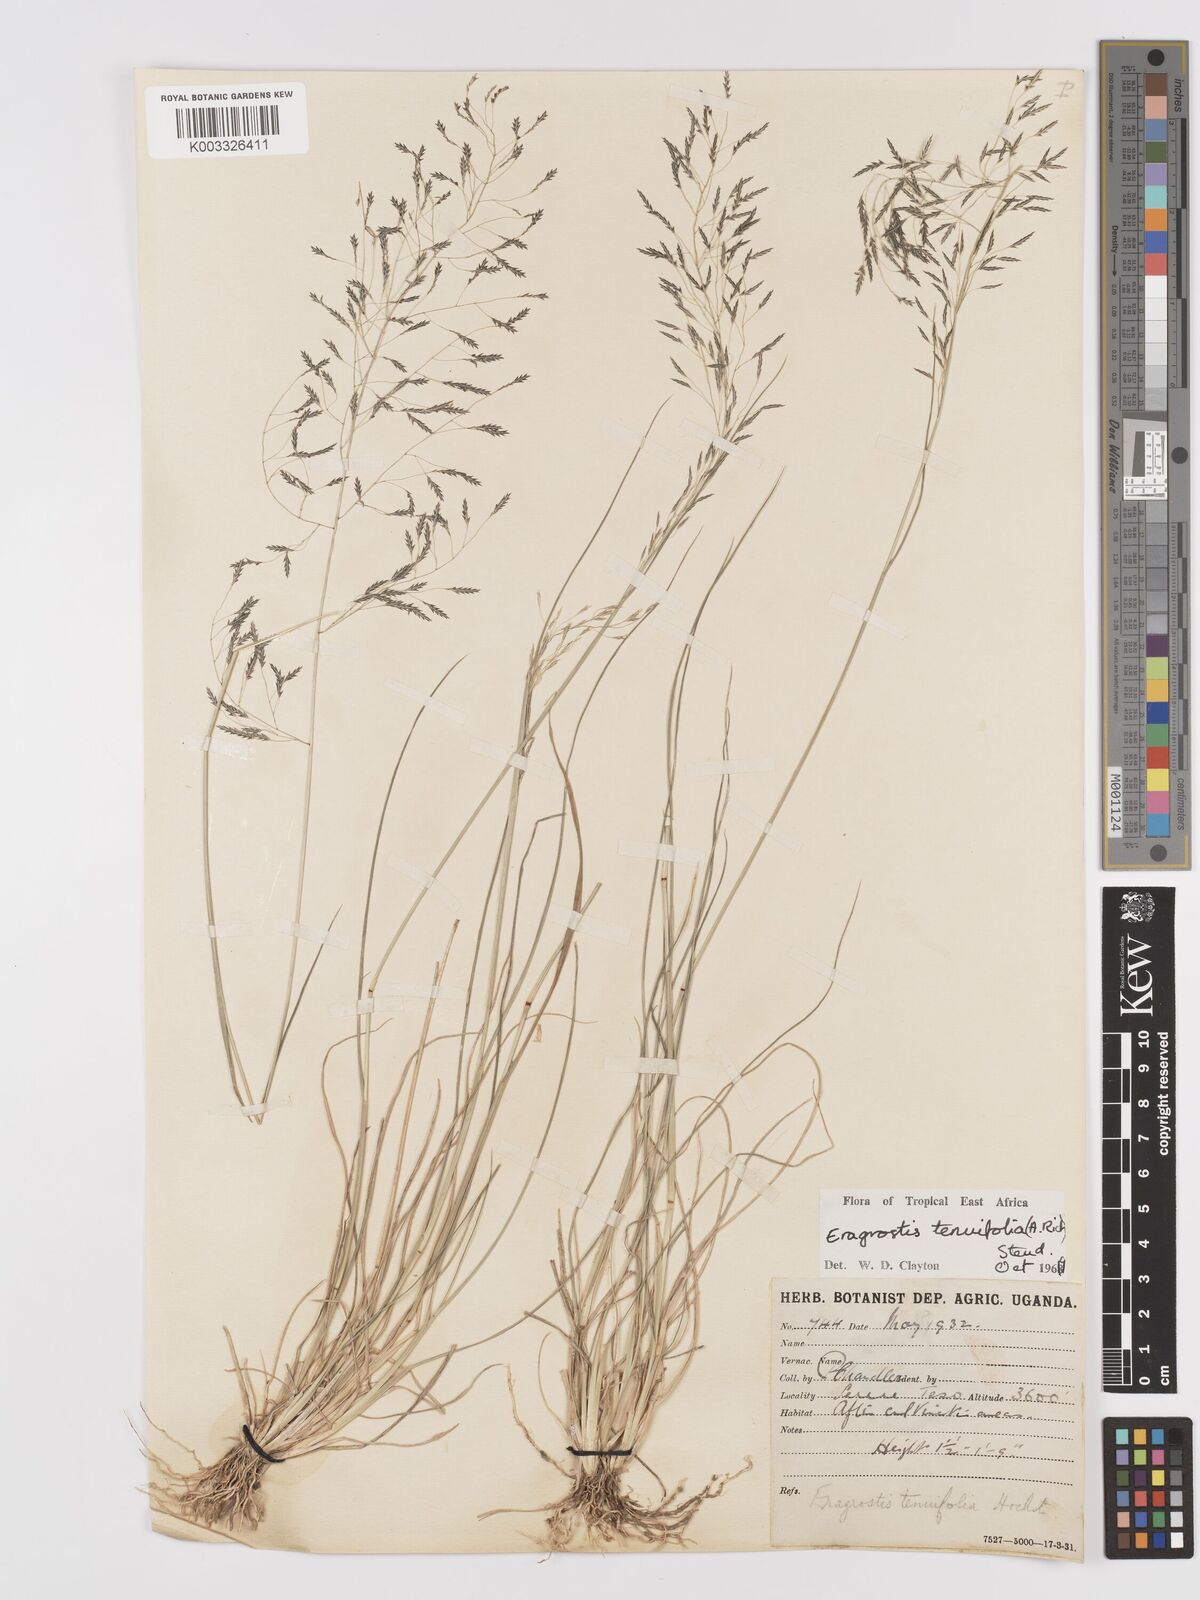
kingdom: Plantae
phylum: Tracheophyta
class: Liliopsida
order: Poales
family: Poaceae
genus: Eragrostis
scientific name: Eragrostis tenuifolia
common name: Elastic grass
